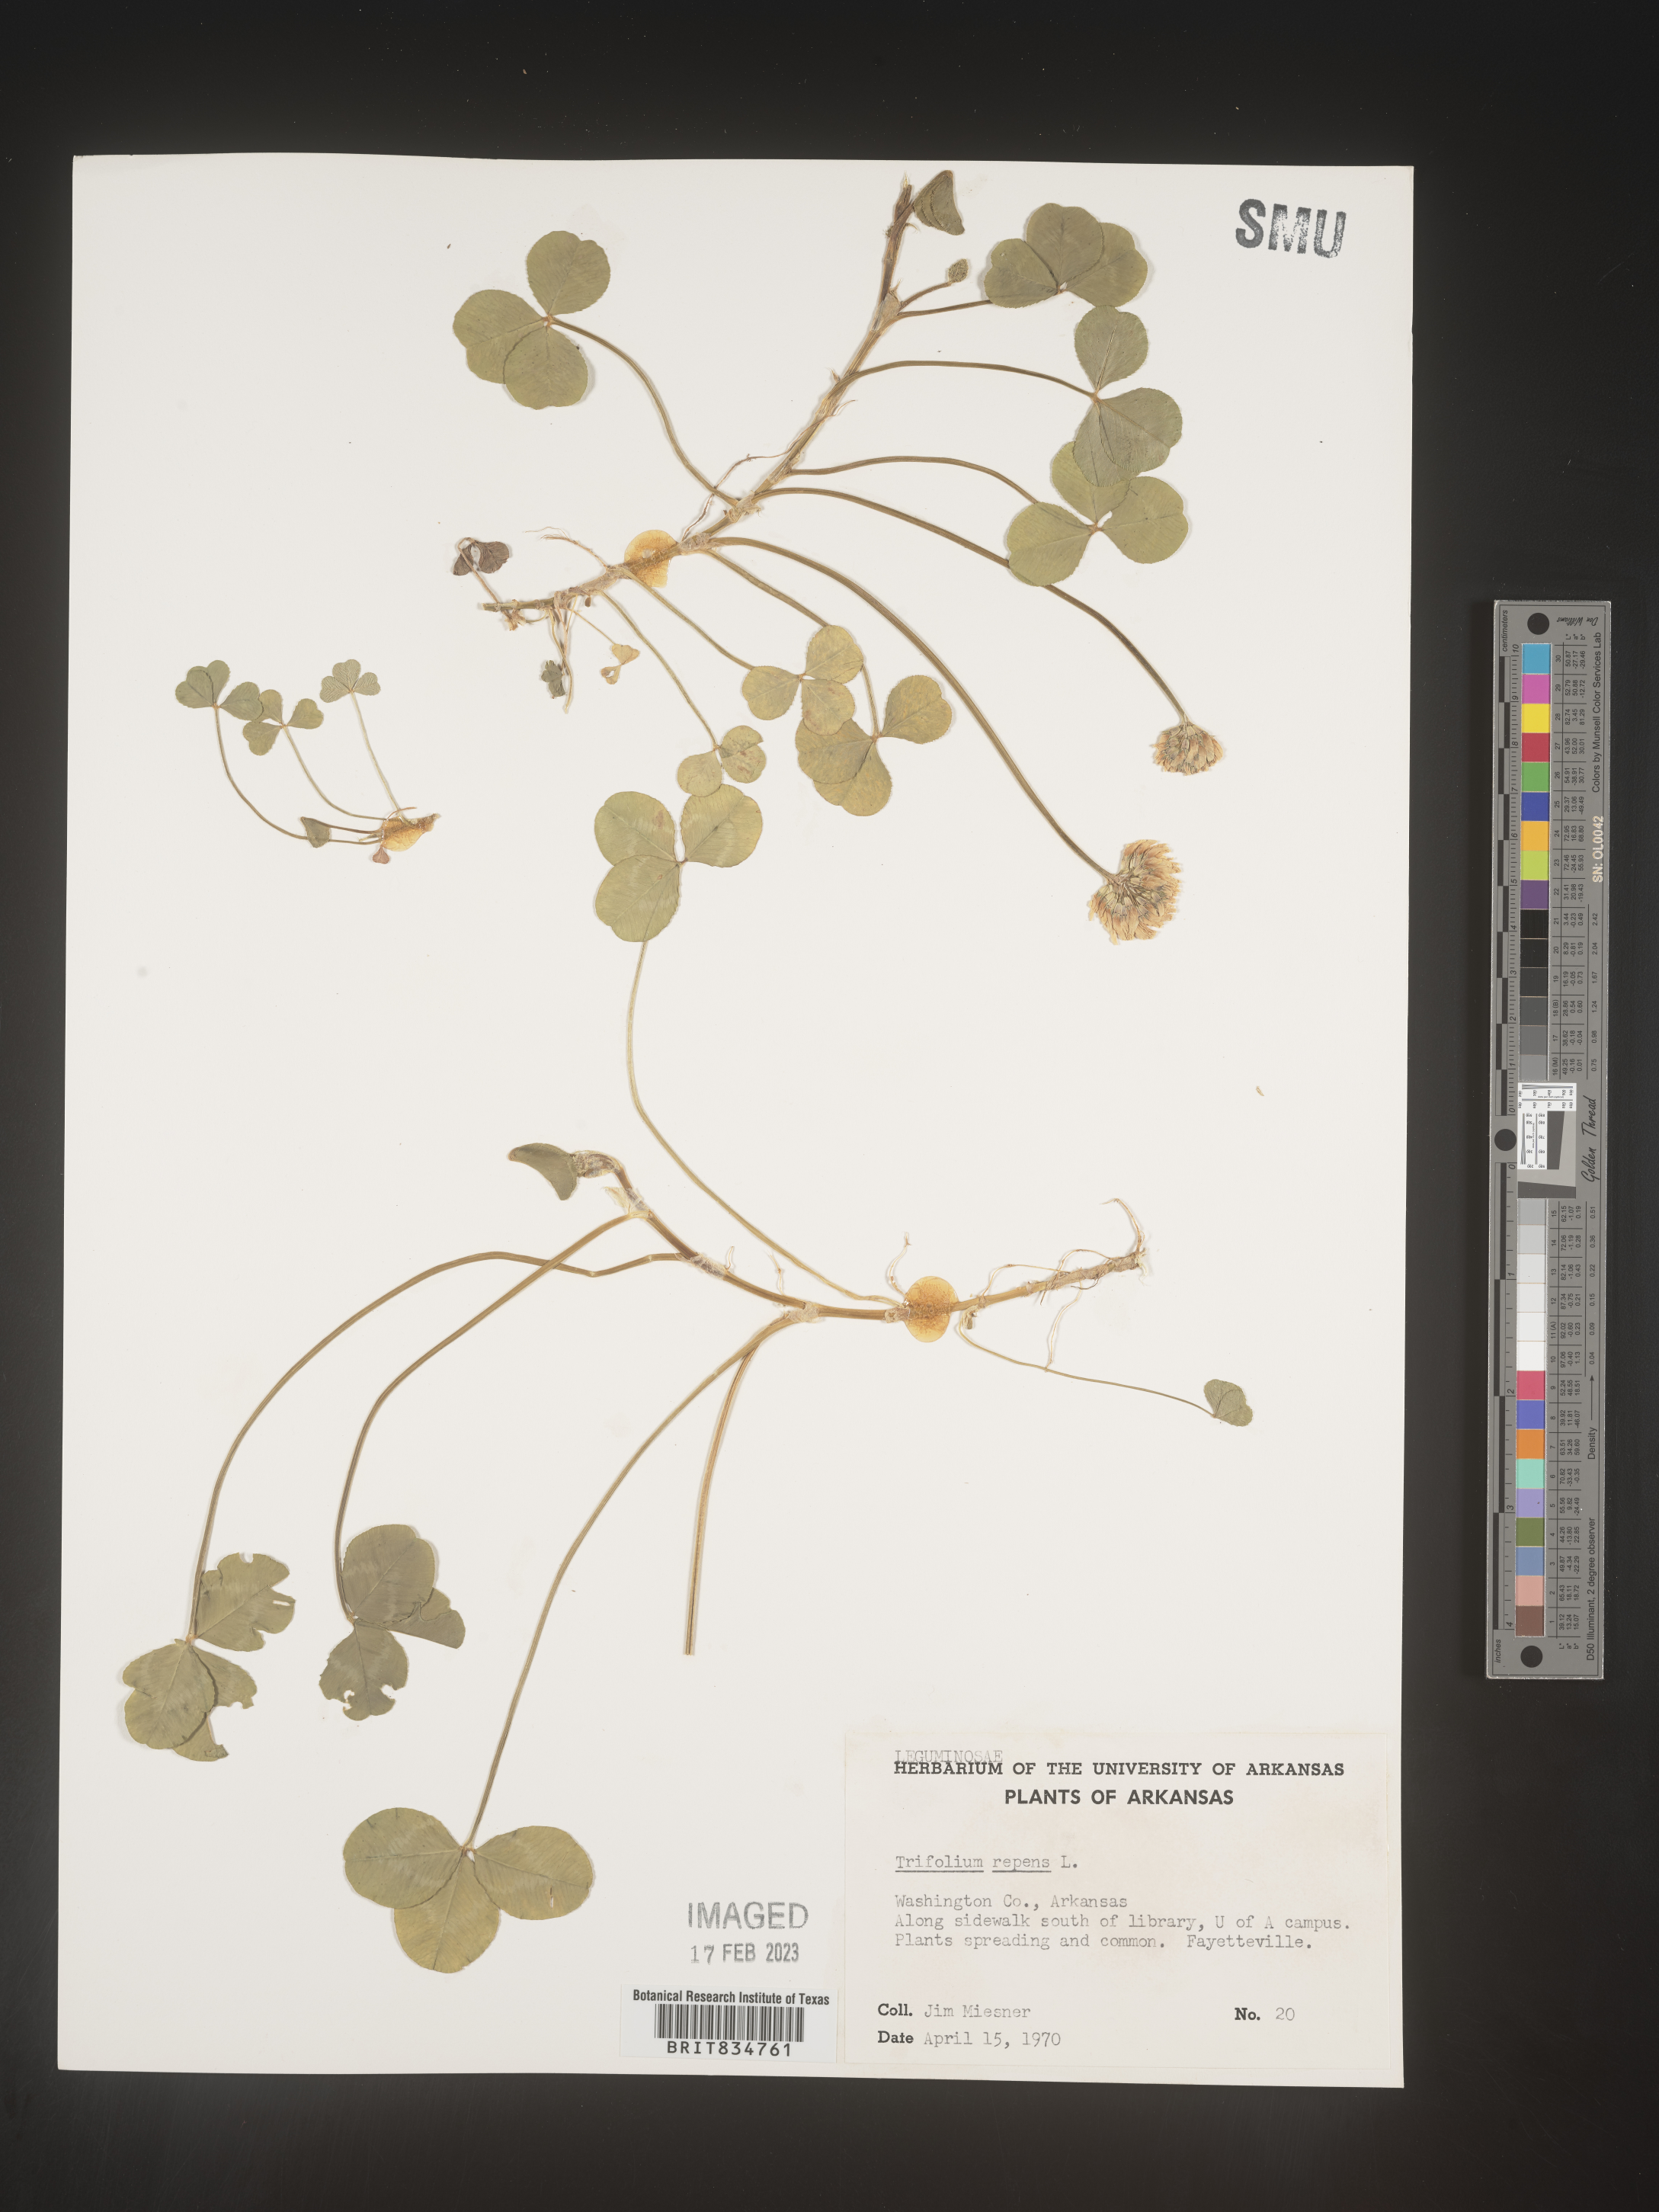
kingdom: Plantae
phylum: Tracheophyta
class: Magnoliopsida
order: Fabales
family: Fabaceae
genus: Trifolium
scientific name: Trifolium repens
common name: White clover
